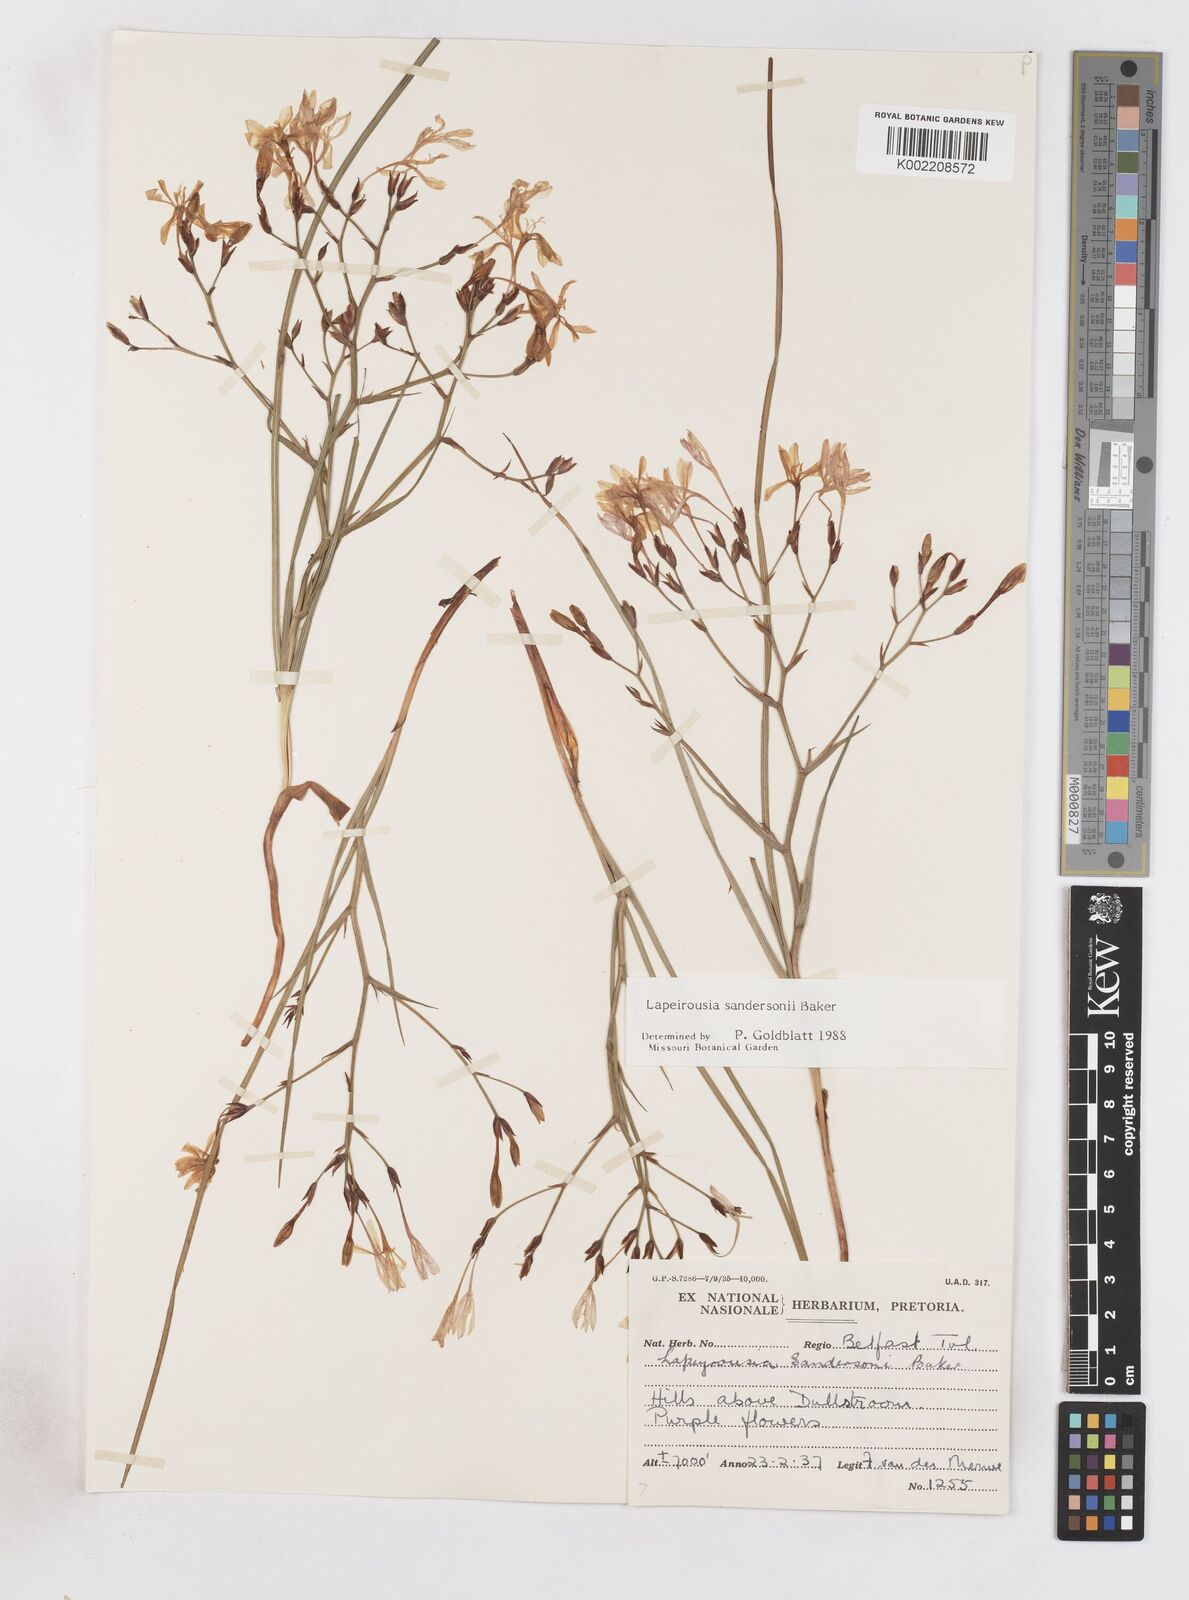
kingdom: Plantae
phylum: Tracheophyta
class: Liliopsida
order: Asparagales
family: Iridaceae
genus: Afrosolen
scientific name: Afrosolen sandersonii
